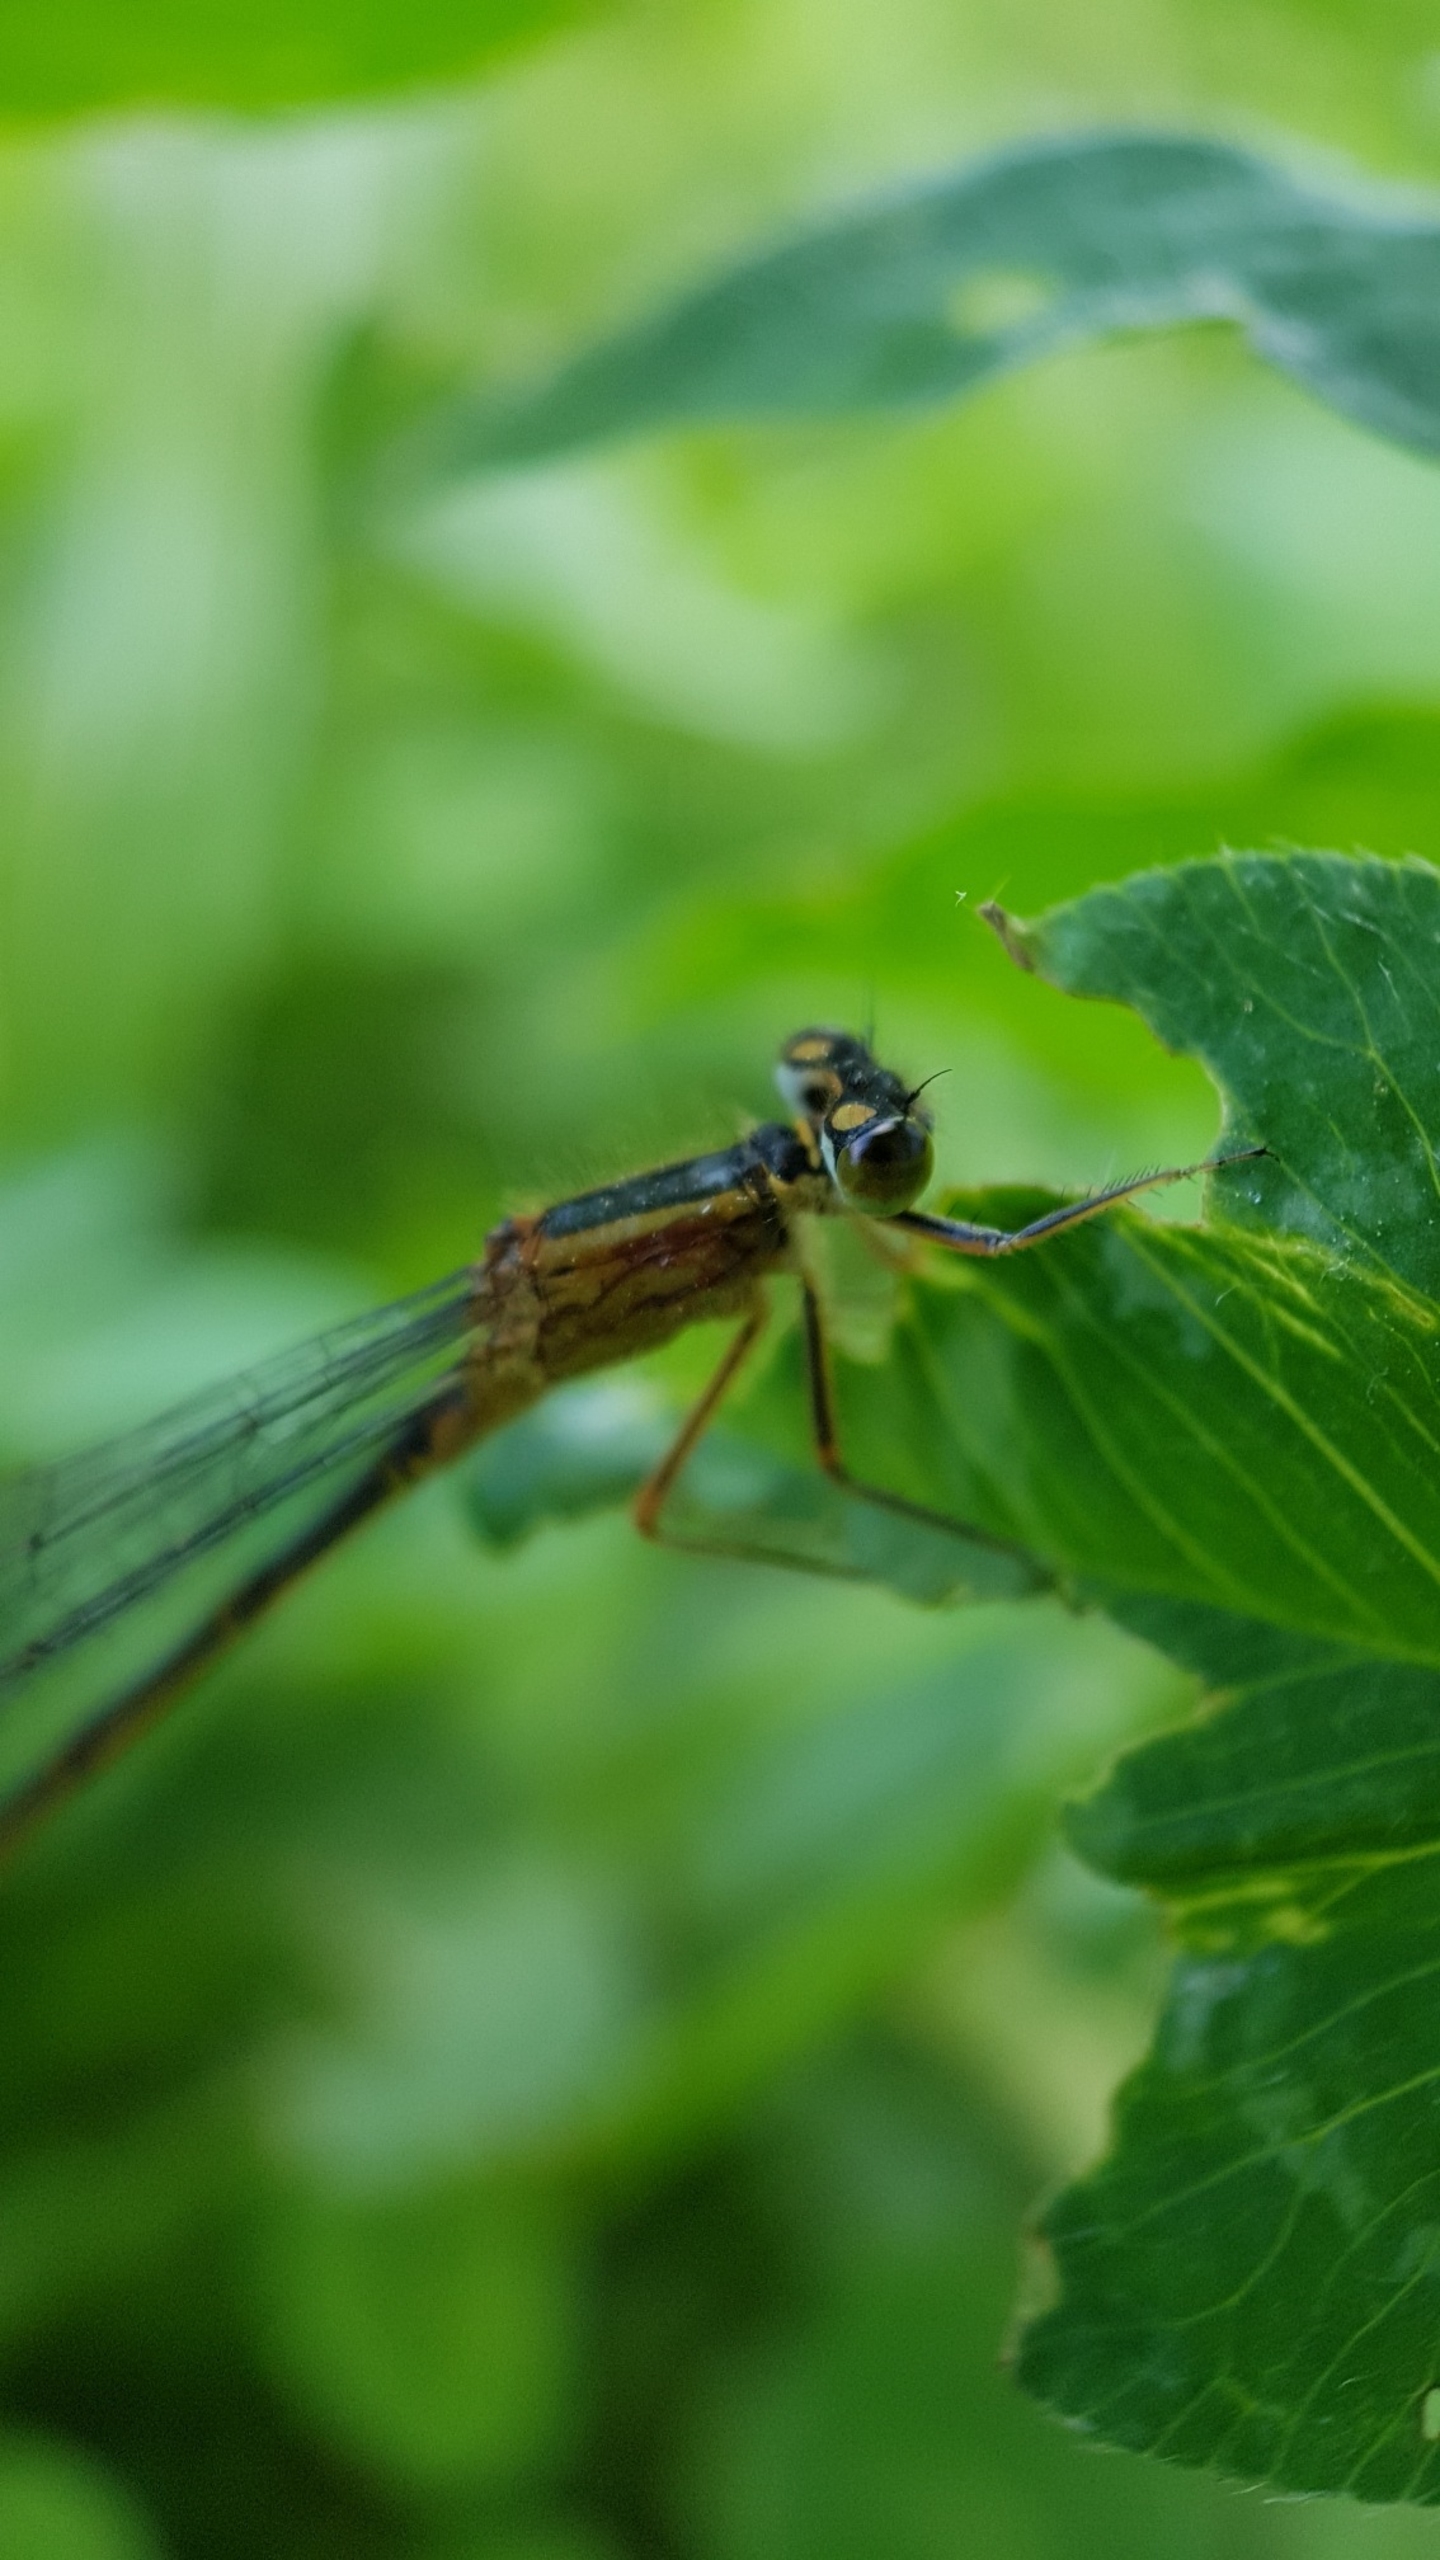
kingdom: Animalia
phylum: Arthropoda
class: Insecta
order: Odonata
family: Coenagrionidae
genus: Ischnura
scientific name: Ischnura elegans
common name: Stor farvevandnymfe
